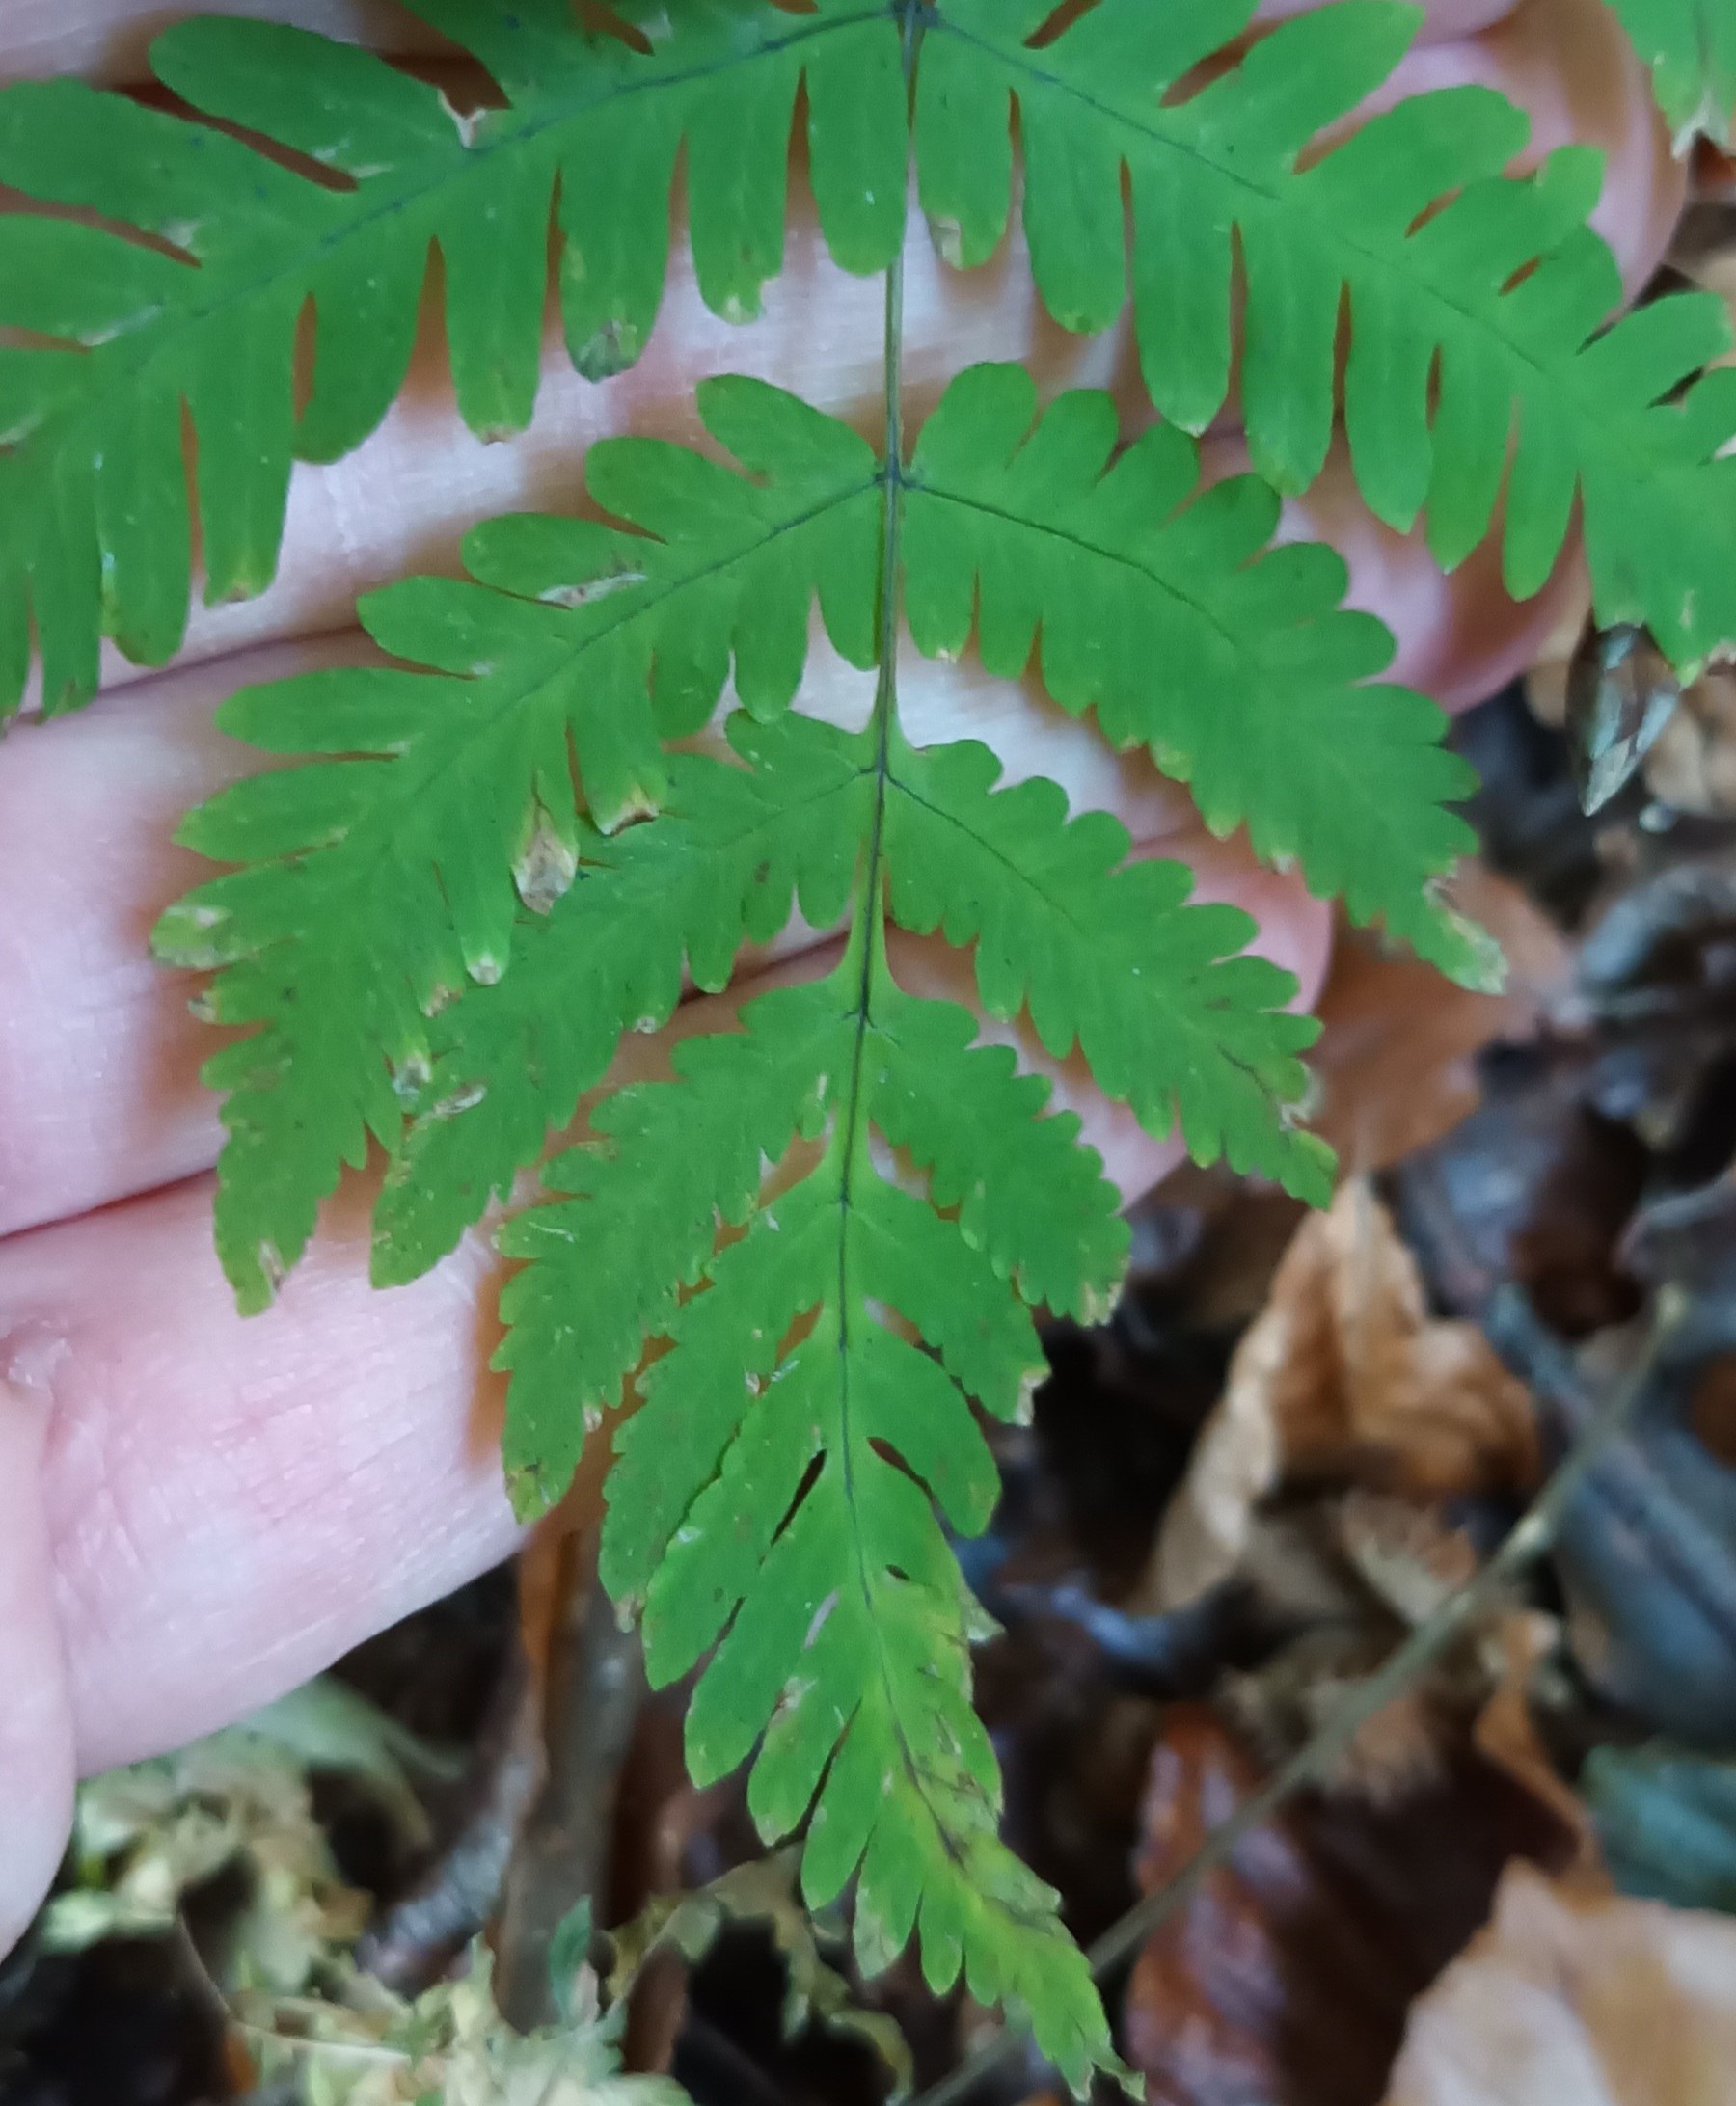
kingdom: Plantae
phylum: Tracheophyta
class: Polypodiopsida
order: Polypodiales
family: Cystopteridaceae
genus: Gymnocarpium
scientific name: Gymnocarpium dryopteris
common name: Tredelt egebregne
